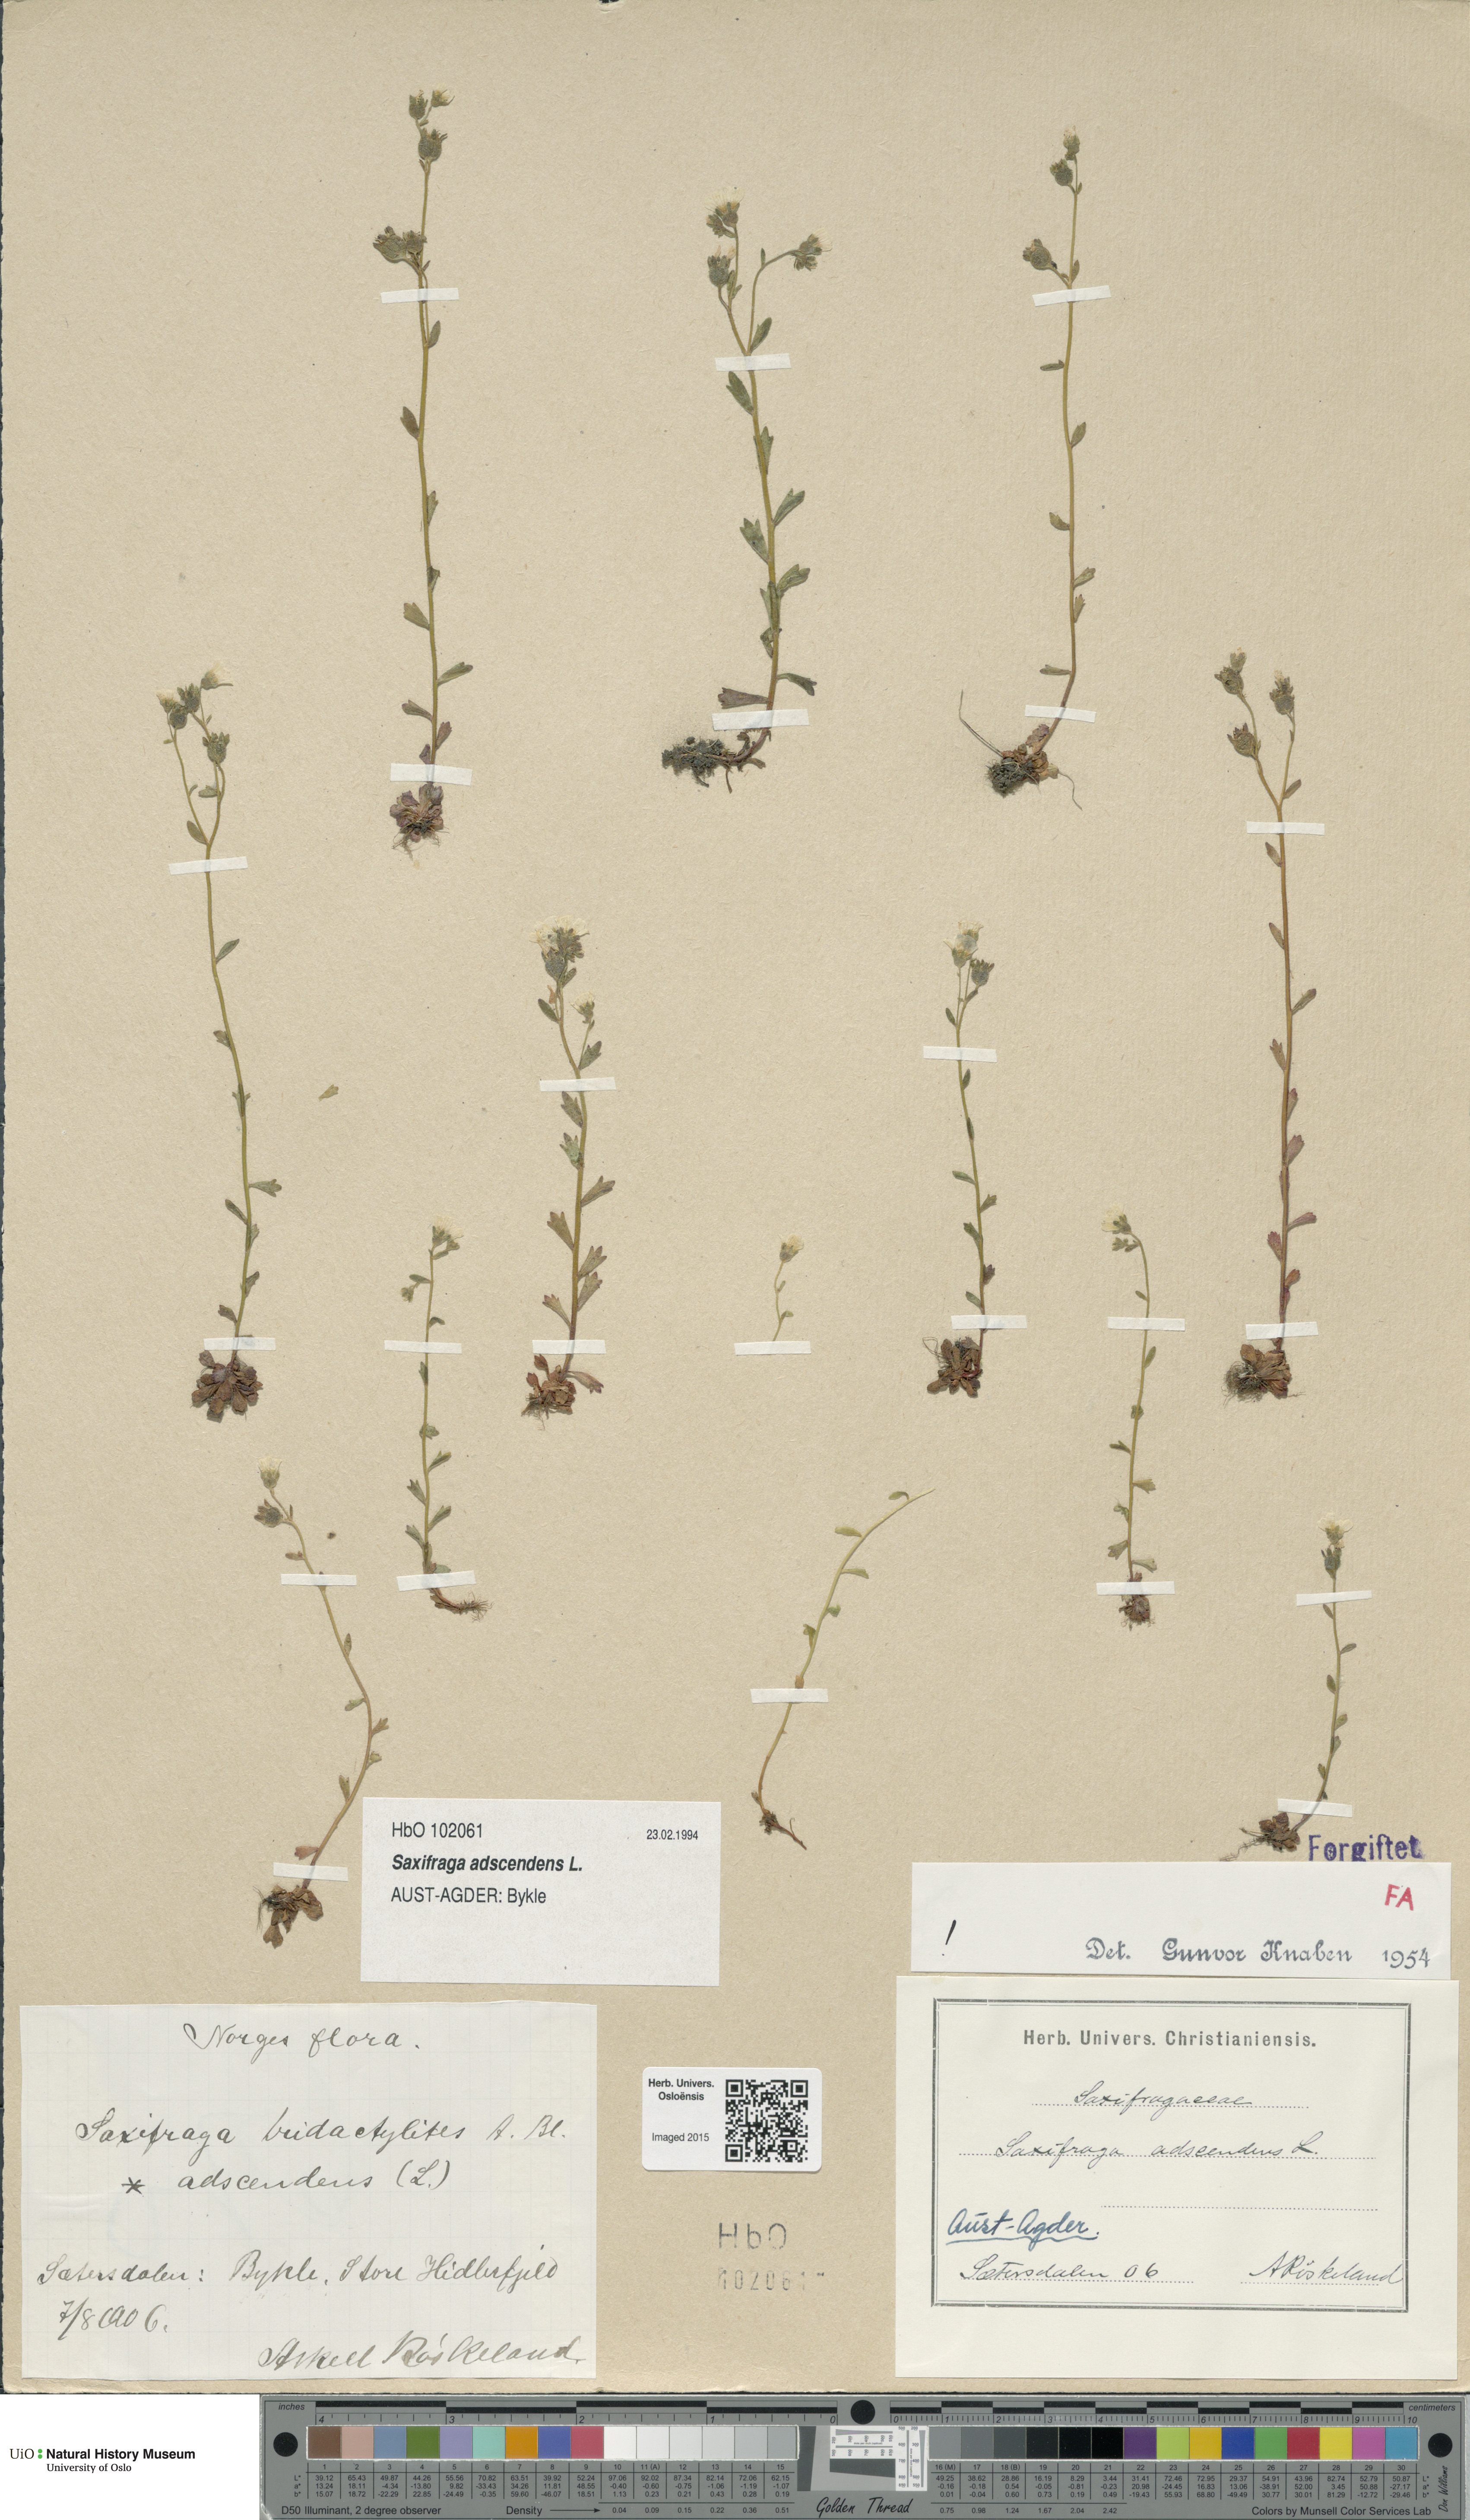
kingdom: Plantae
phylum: Tracheophyta
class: Magnoliopsida
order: Saxifragales
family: Saxifragaceae
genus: Saxifraga
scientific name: Saxifraga adscendens
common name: Ascending saxifrage
